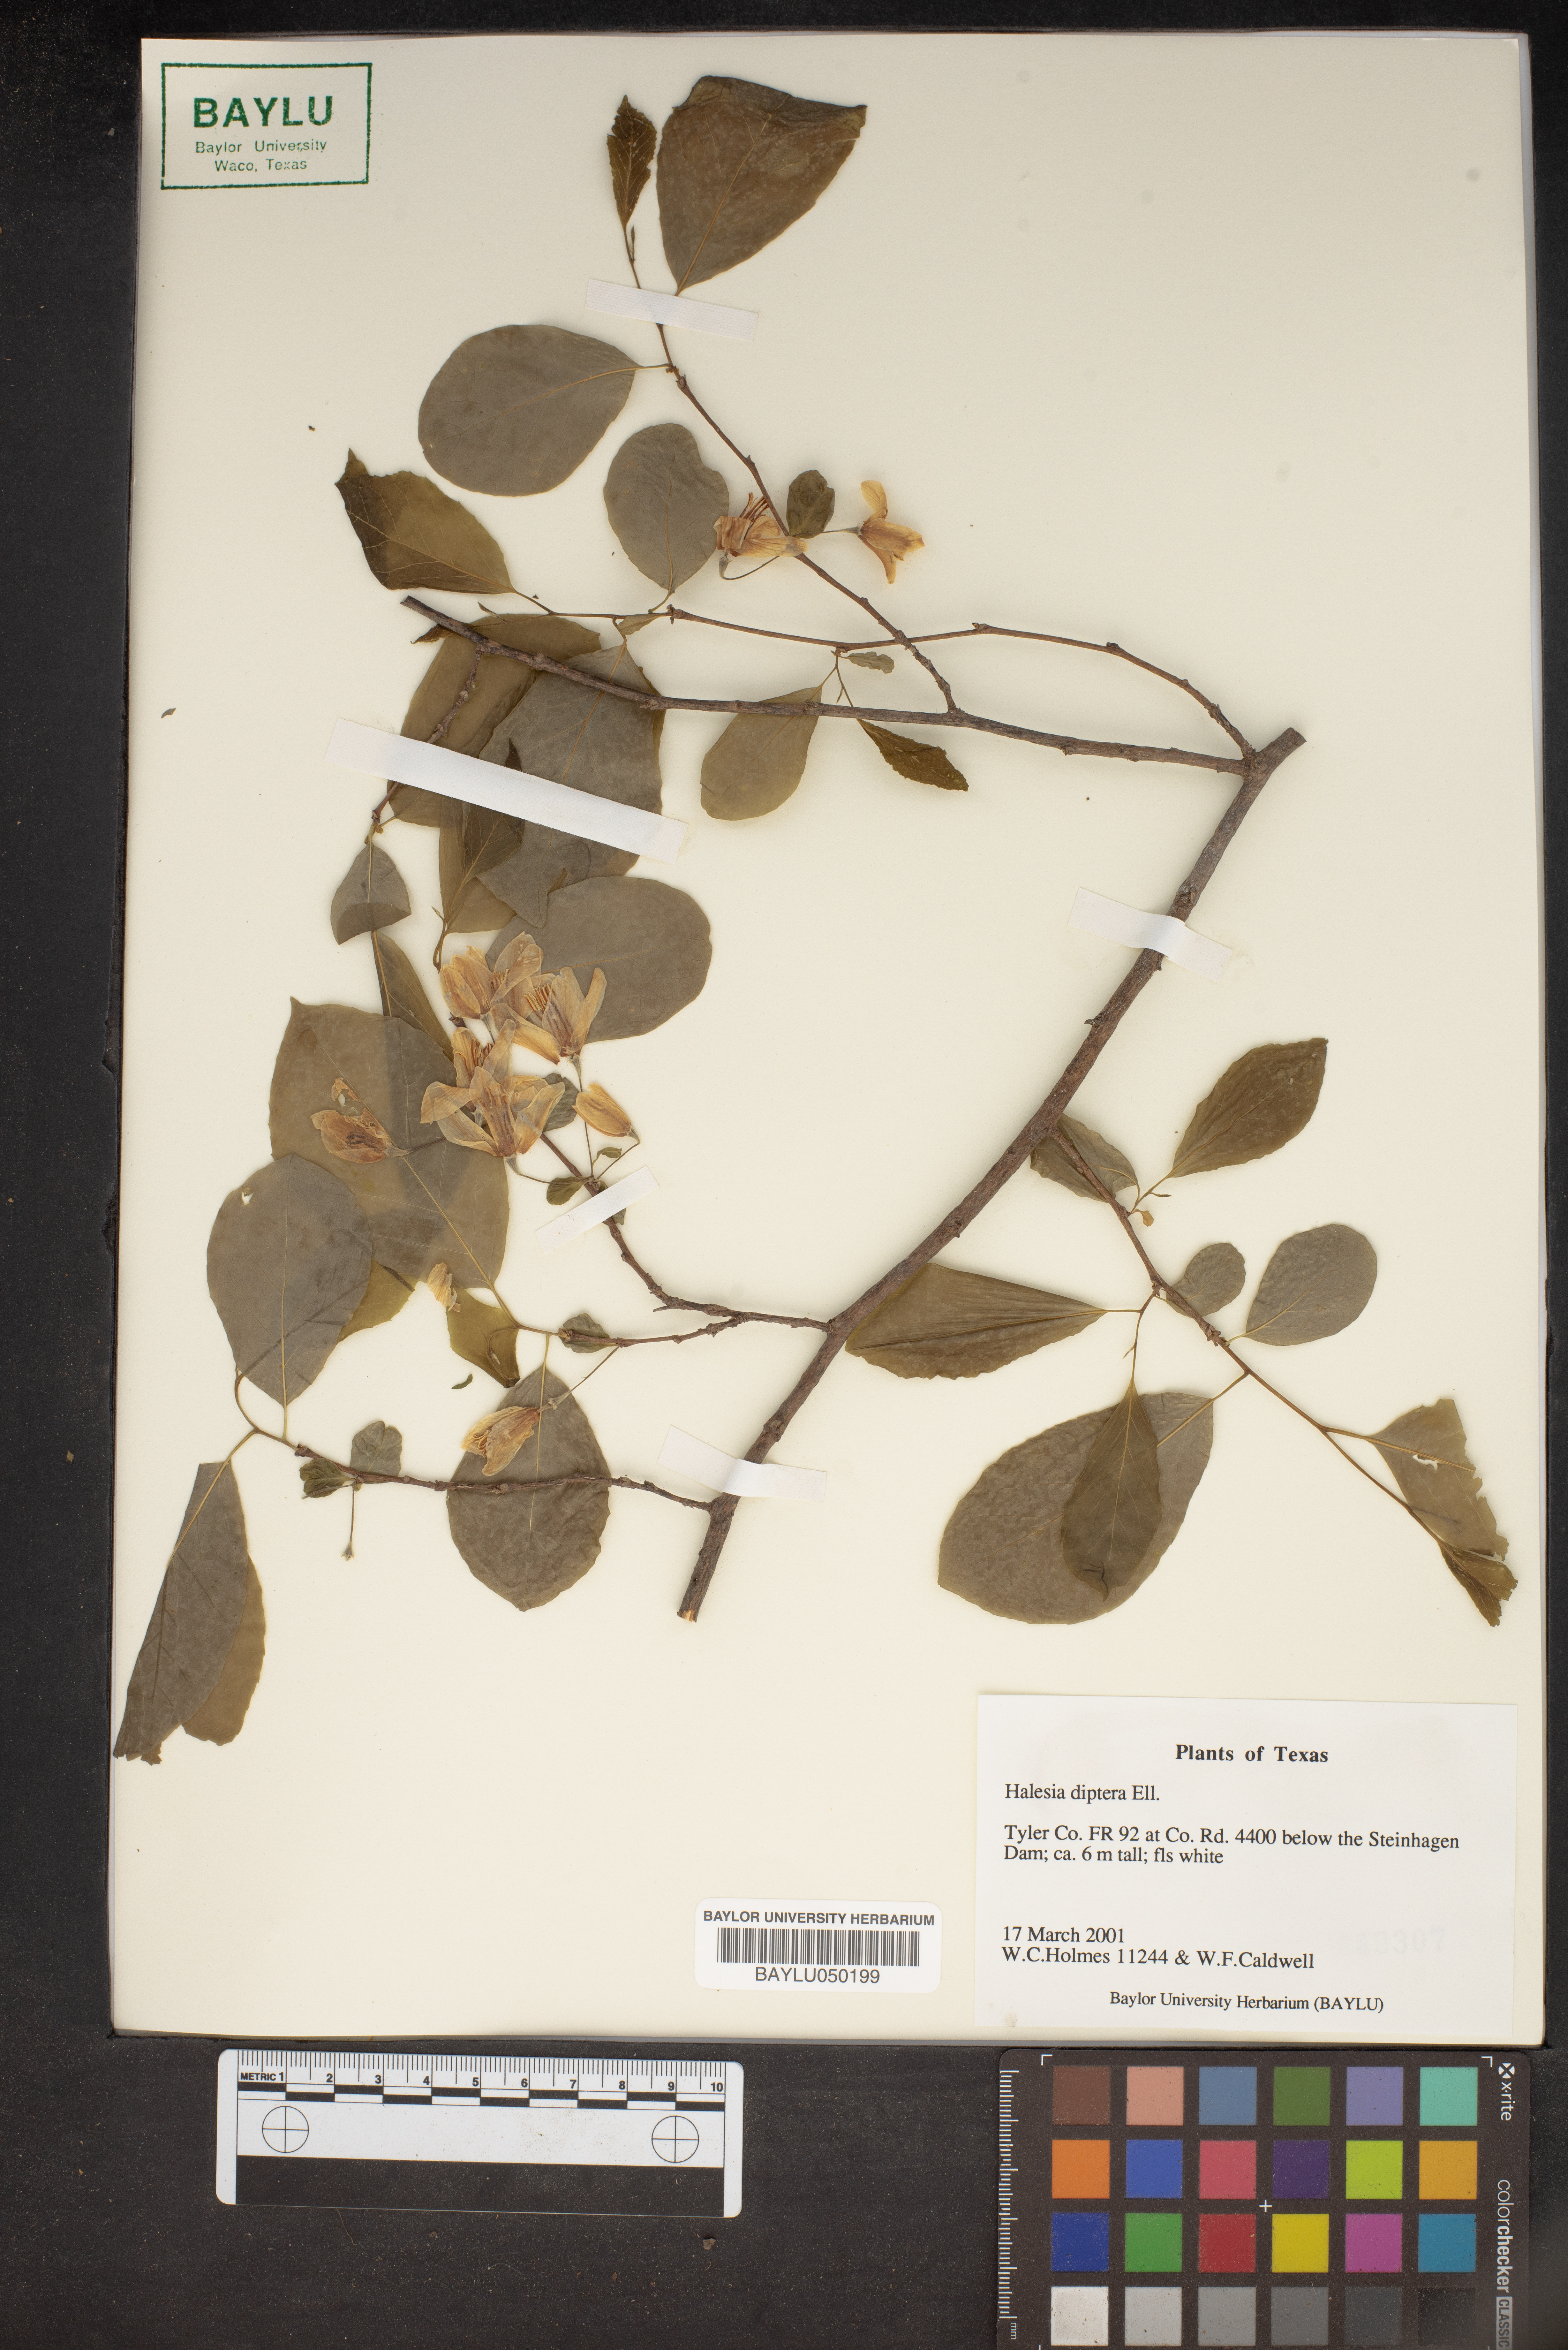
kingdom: Plantae
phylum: Tracheophyta
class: Magnoliopsida
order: Ericales
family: Styracaceae
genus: Halesia
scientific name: Halesia diptera
